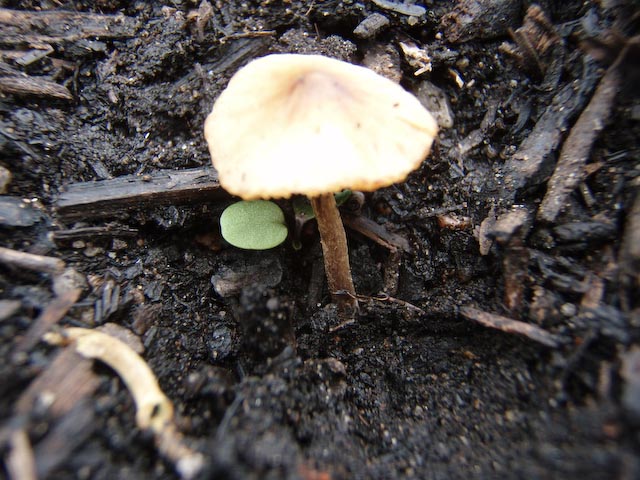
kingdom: Fungi
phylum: Basidiomycota
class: Agaricomycetes
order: Agaricales
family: Bolbitiaceae
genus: Conocybe
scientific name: Conocybe fuscimarginata
